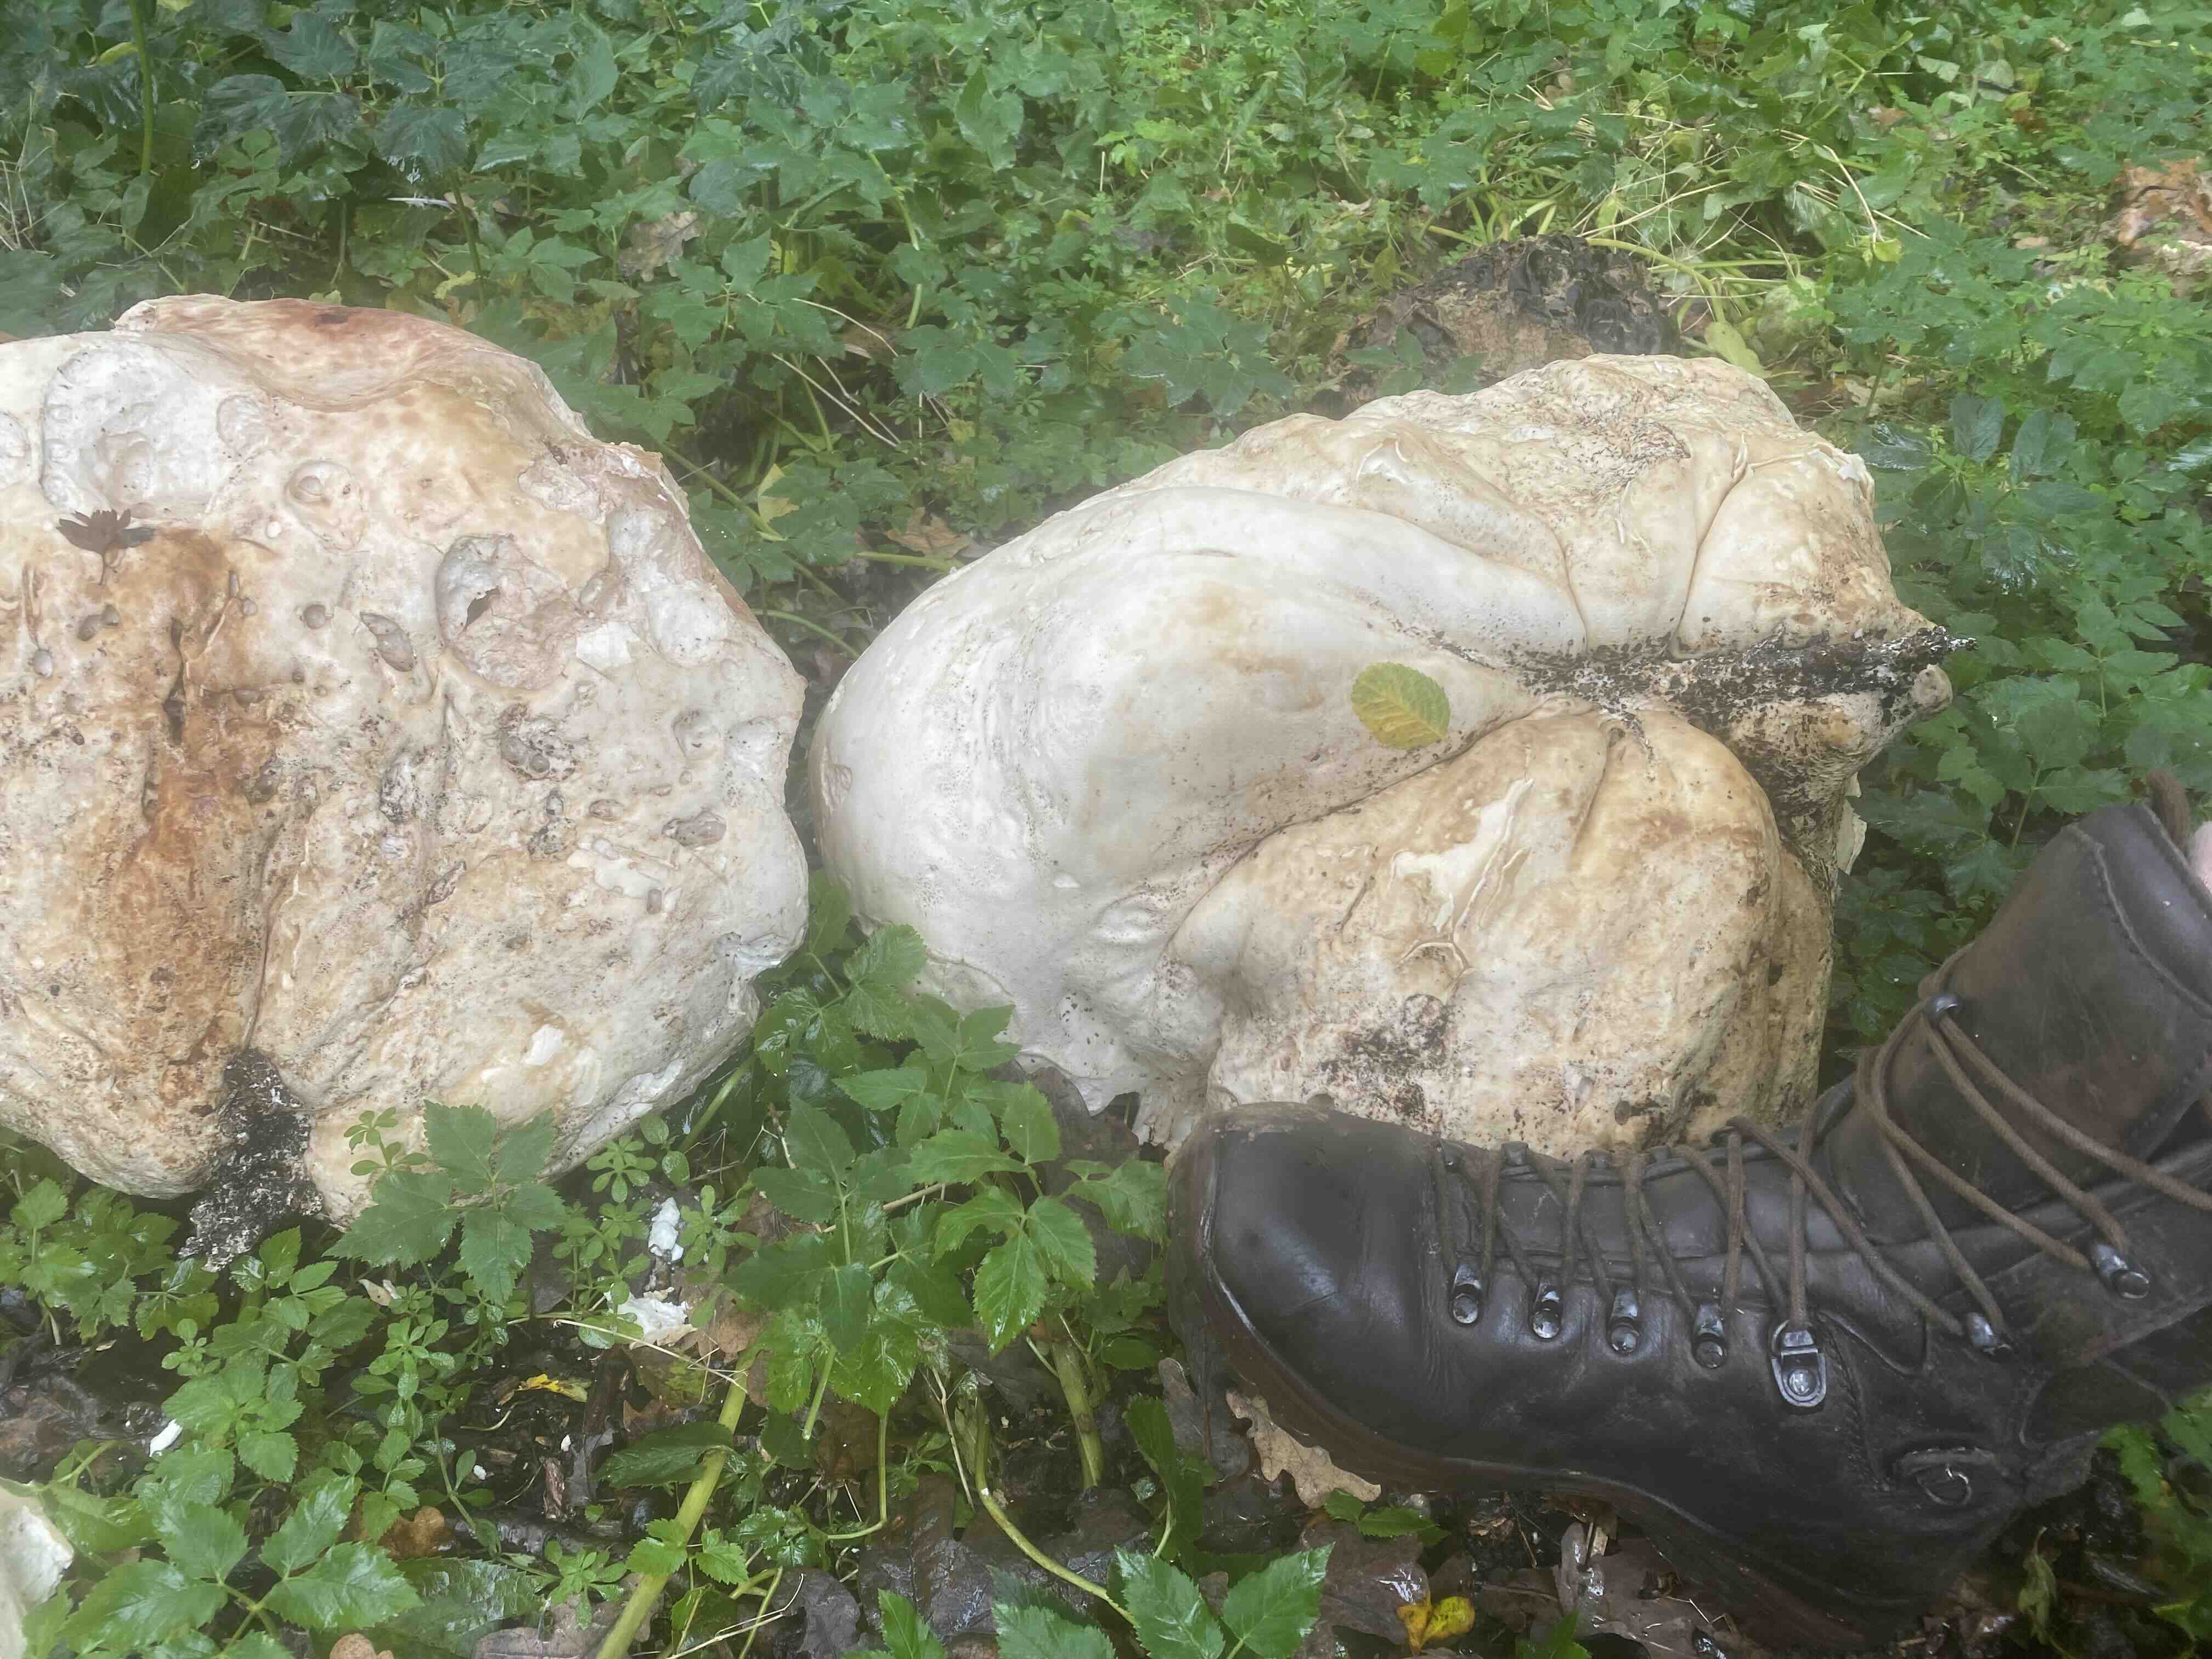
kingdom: Fungi
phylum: Basidiomycota
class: Agaricomycetes
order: Agaricales
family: Lycoperdaceae
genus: Calvatia
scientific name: Calvatia gigantea
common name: kæmpestøvbold
